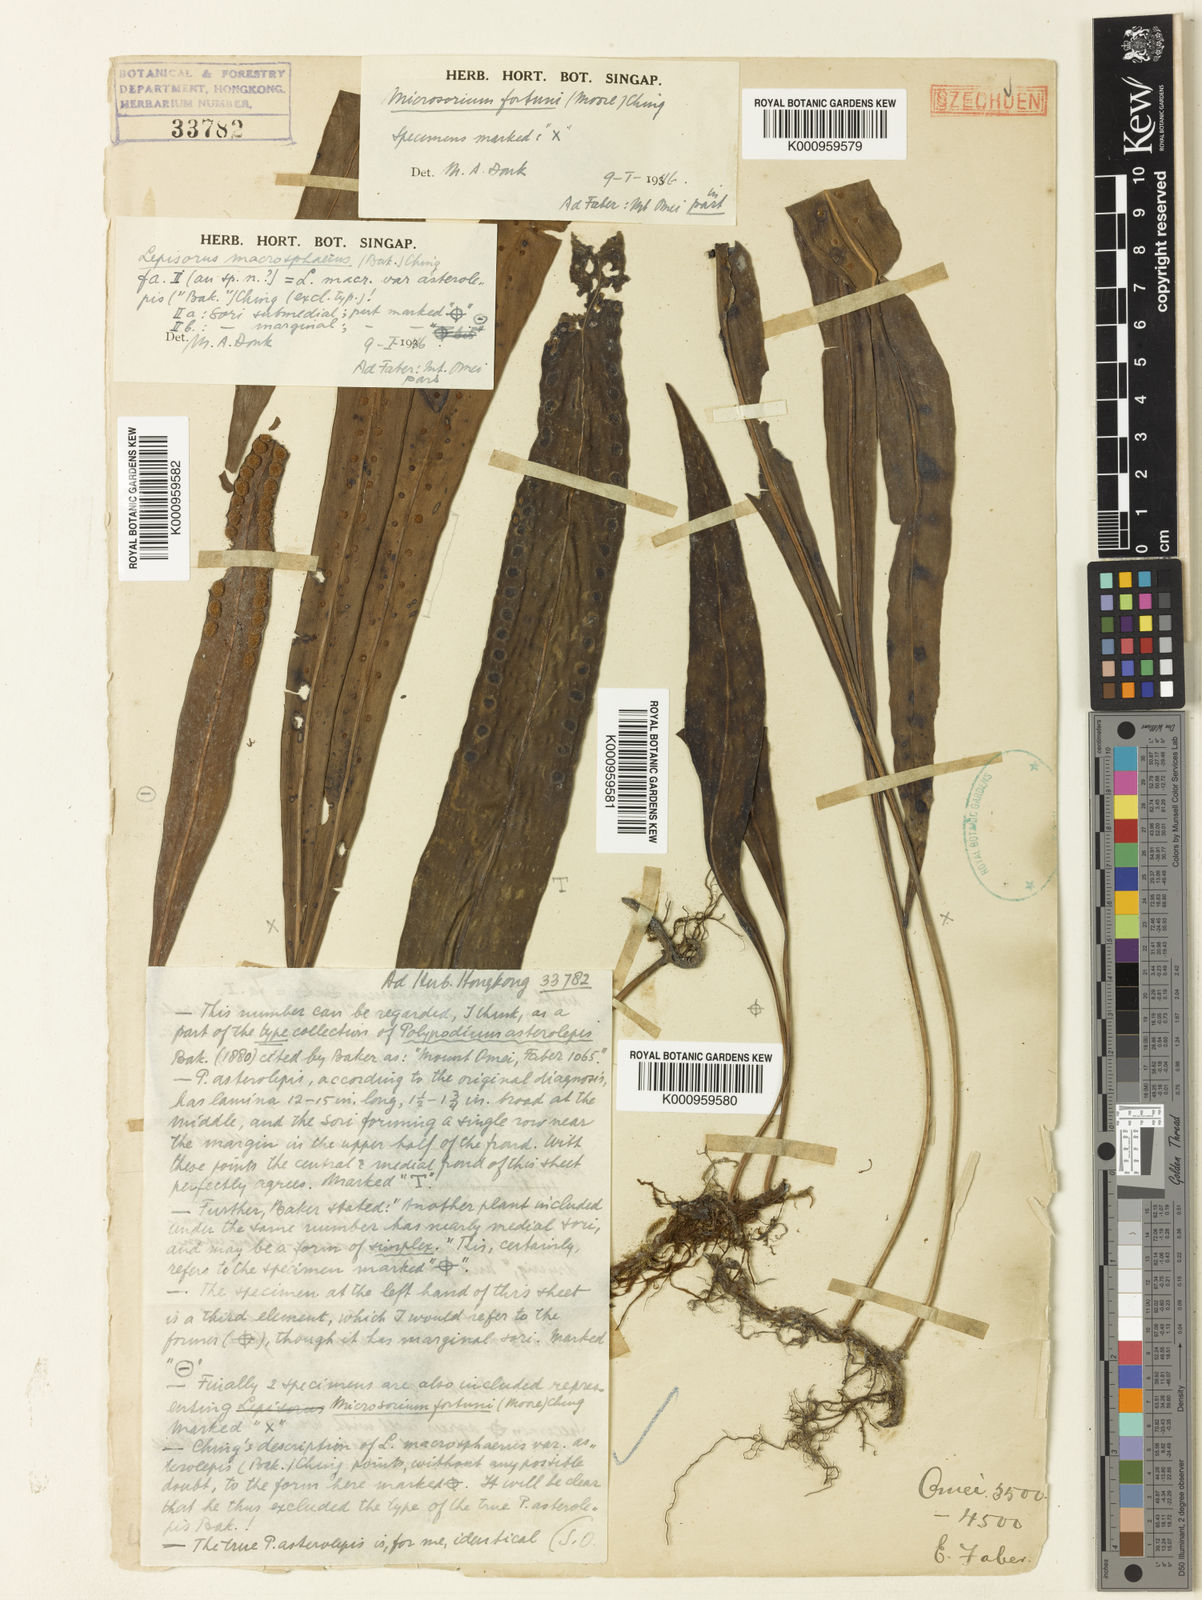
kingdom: Plantae
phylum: Tracheophyta
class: Polypodiopsida
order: Polypodiales
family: Polypodiaceae
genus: Lepisorus
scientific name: Lepisorus asterolepis
